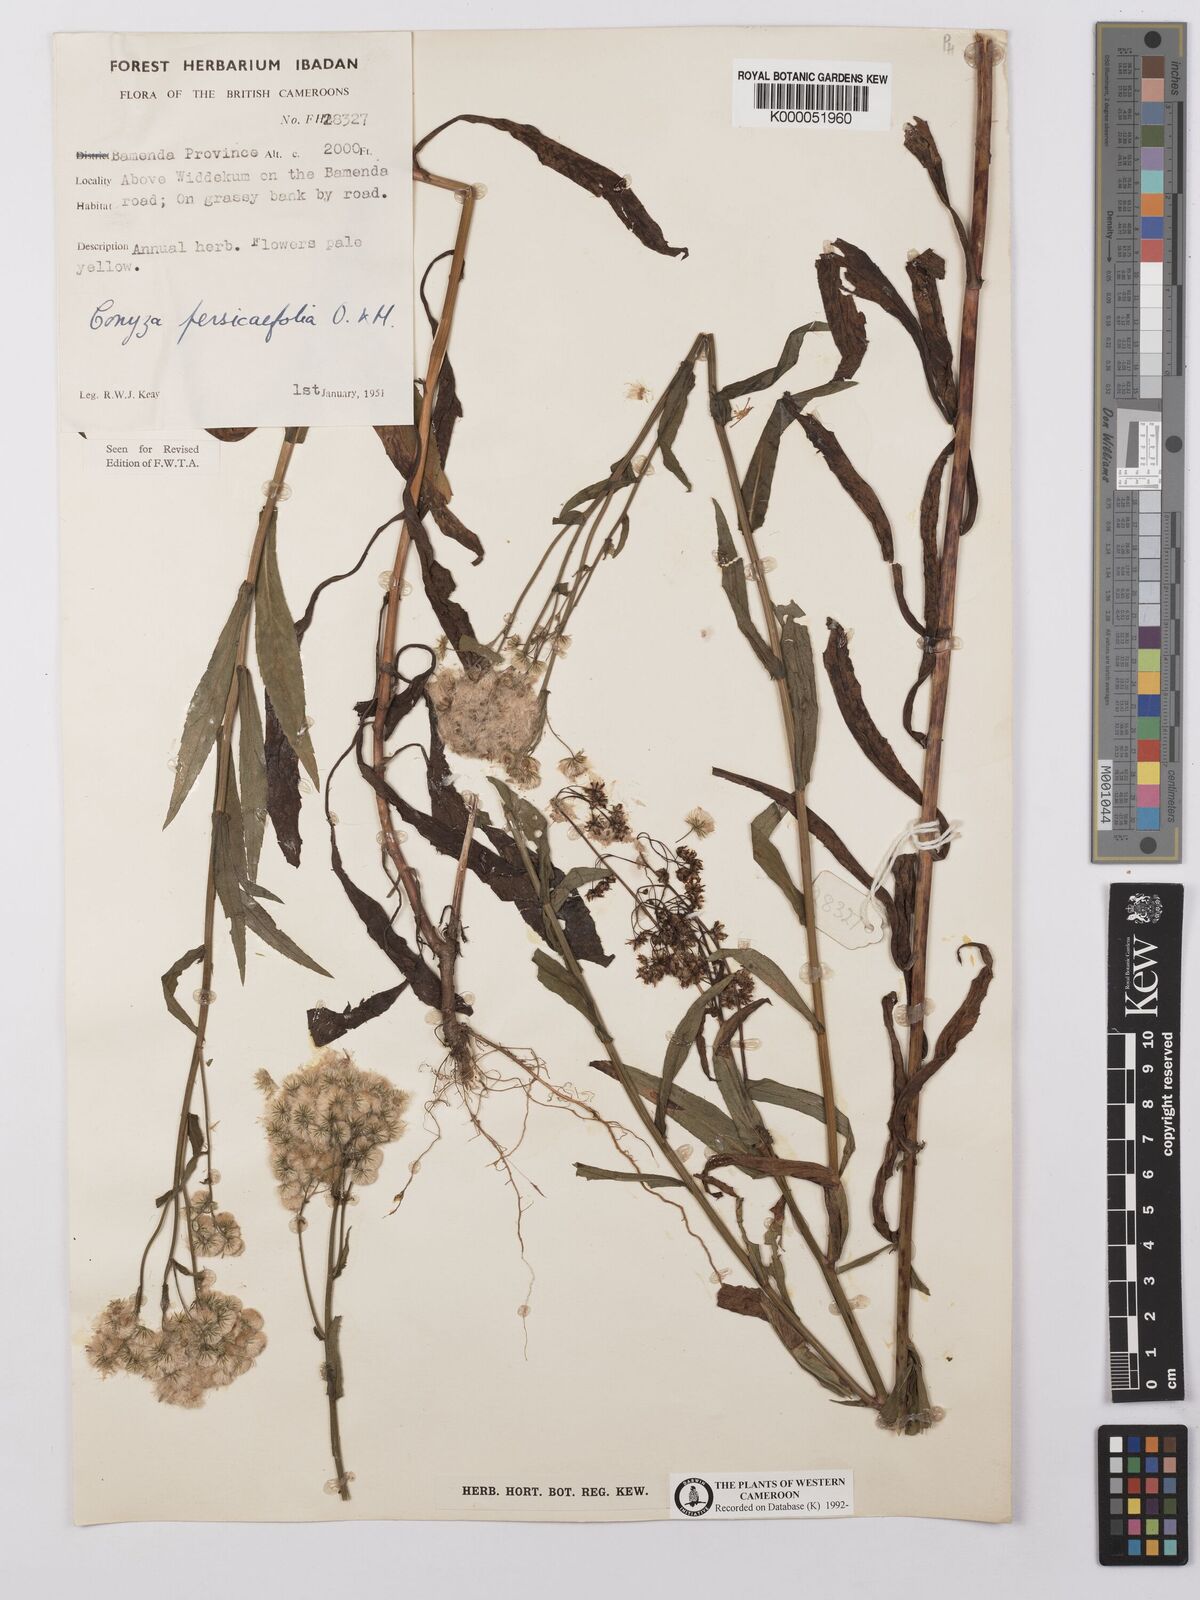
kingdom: Plantae
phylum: Tracheophyta
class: Magnoliopsida
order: Asterales
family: Asteraceae
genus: Nidorella
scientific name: Nidorella attenuata
